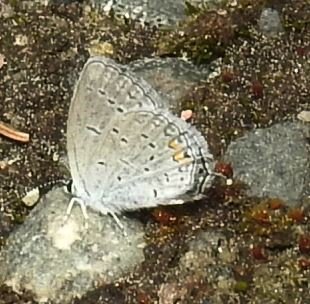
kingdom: Animalia
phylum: Arthropoda
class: Insecta
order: Lepidoptera
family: Lycaenidae
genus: Elkalyce
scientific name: Elkalyce comyntas
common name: Eastern Tailed-Blue
